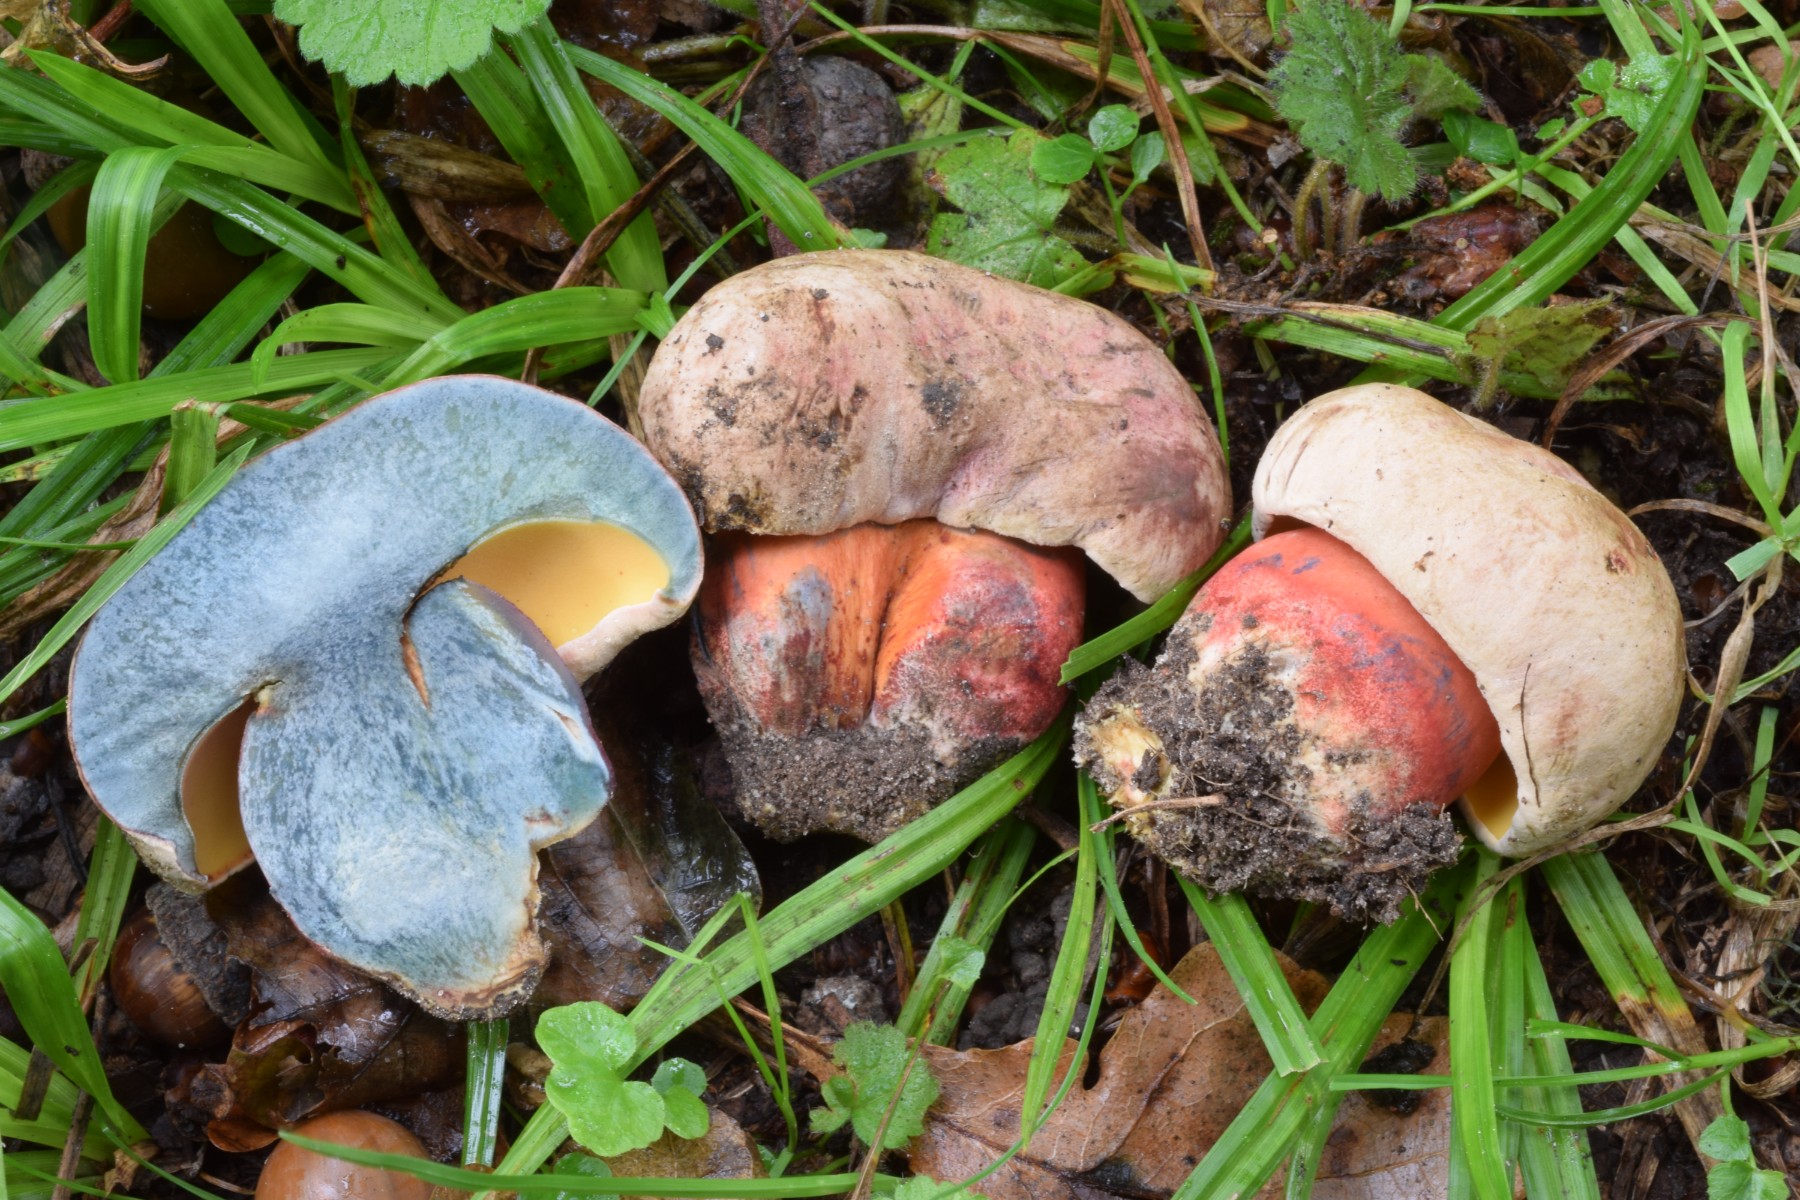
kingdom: Fungi
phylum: Basidiomycota
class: Agaricomycetes
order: Boletales
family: Boletaceae
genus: Rubroboletus
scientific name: Rubroboletus legaliae
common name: djævle-rørhat
